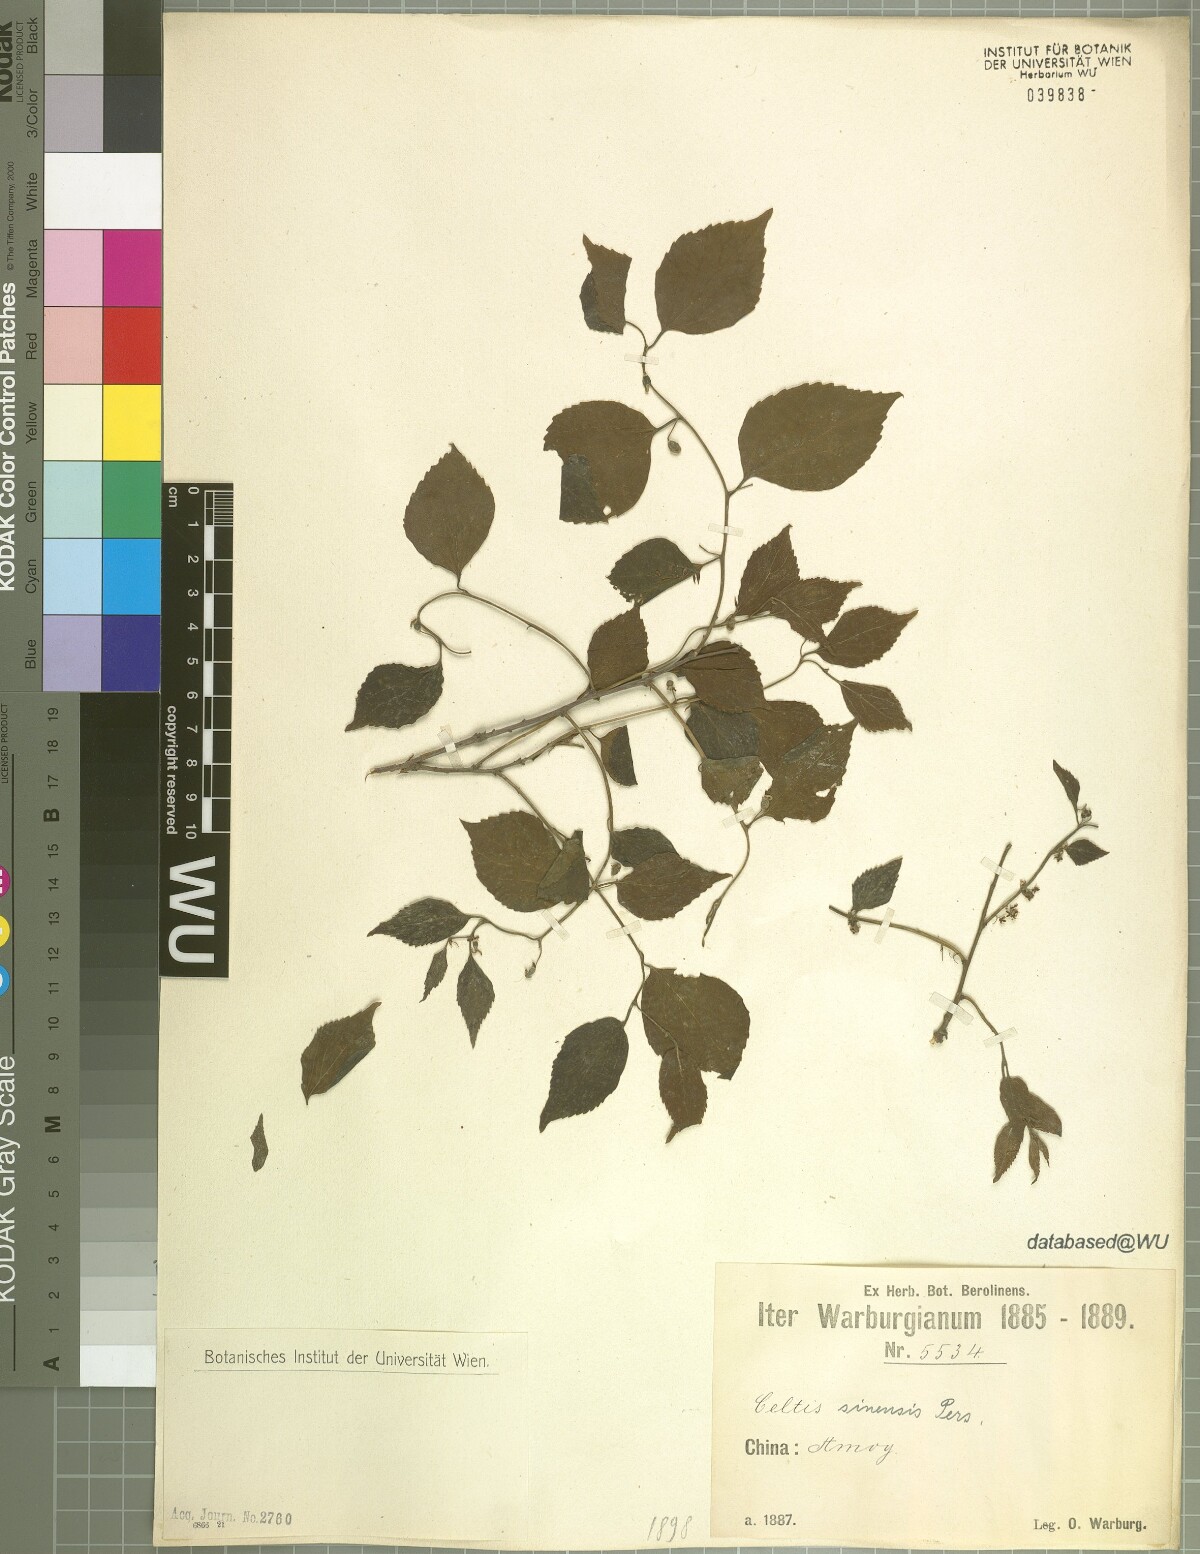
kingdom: Plantae
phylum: Tracheophyta
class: Magnoliopsida
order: Rosales
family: Cannabaceae
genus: Celtis
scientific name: Celtis sinensis
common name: Chinese hackberry
